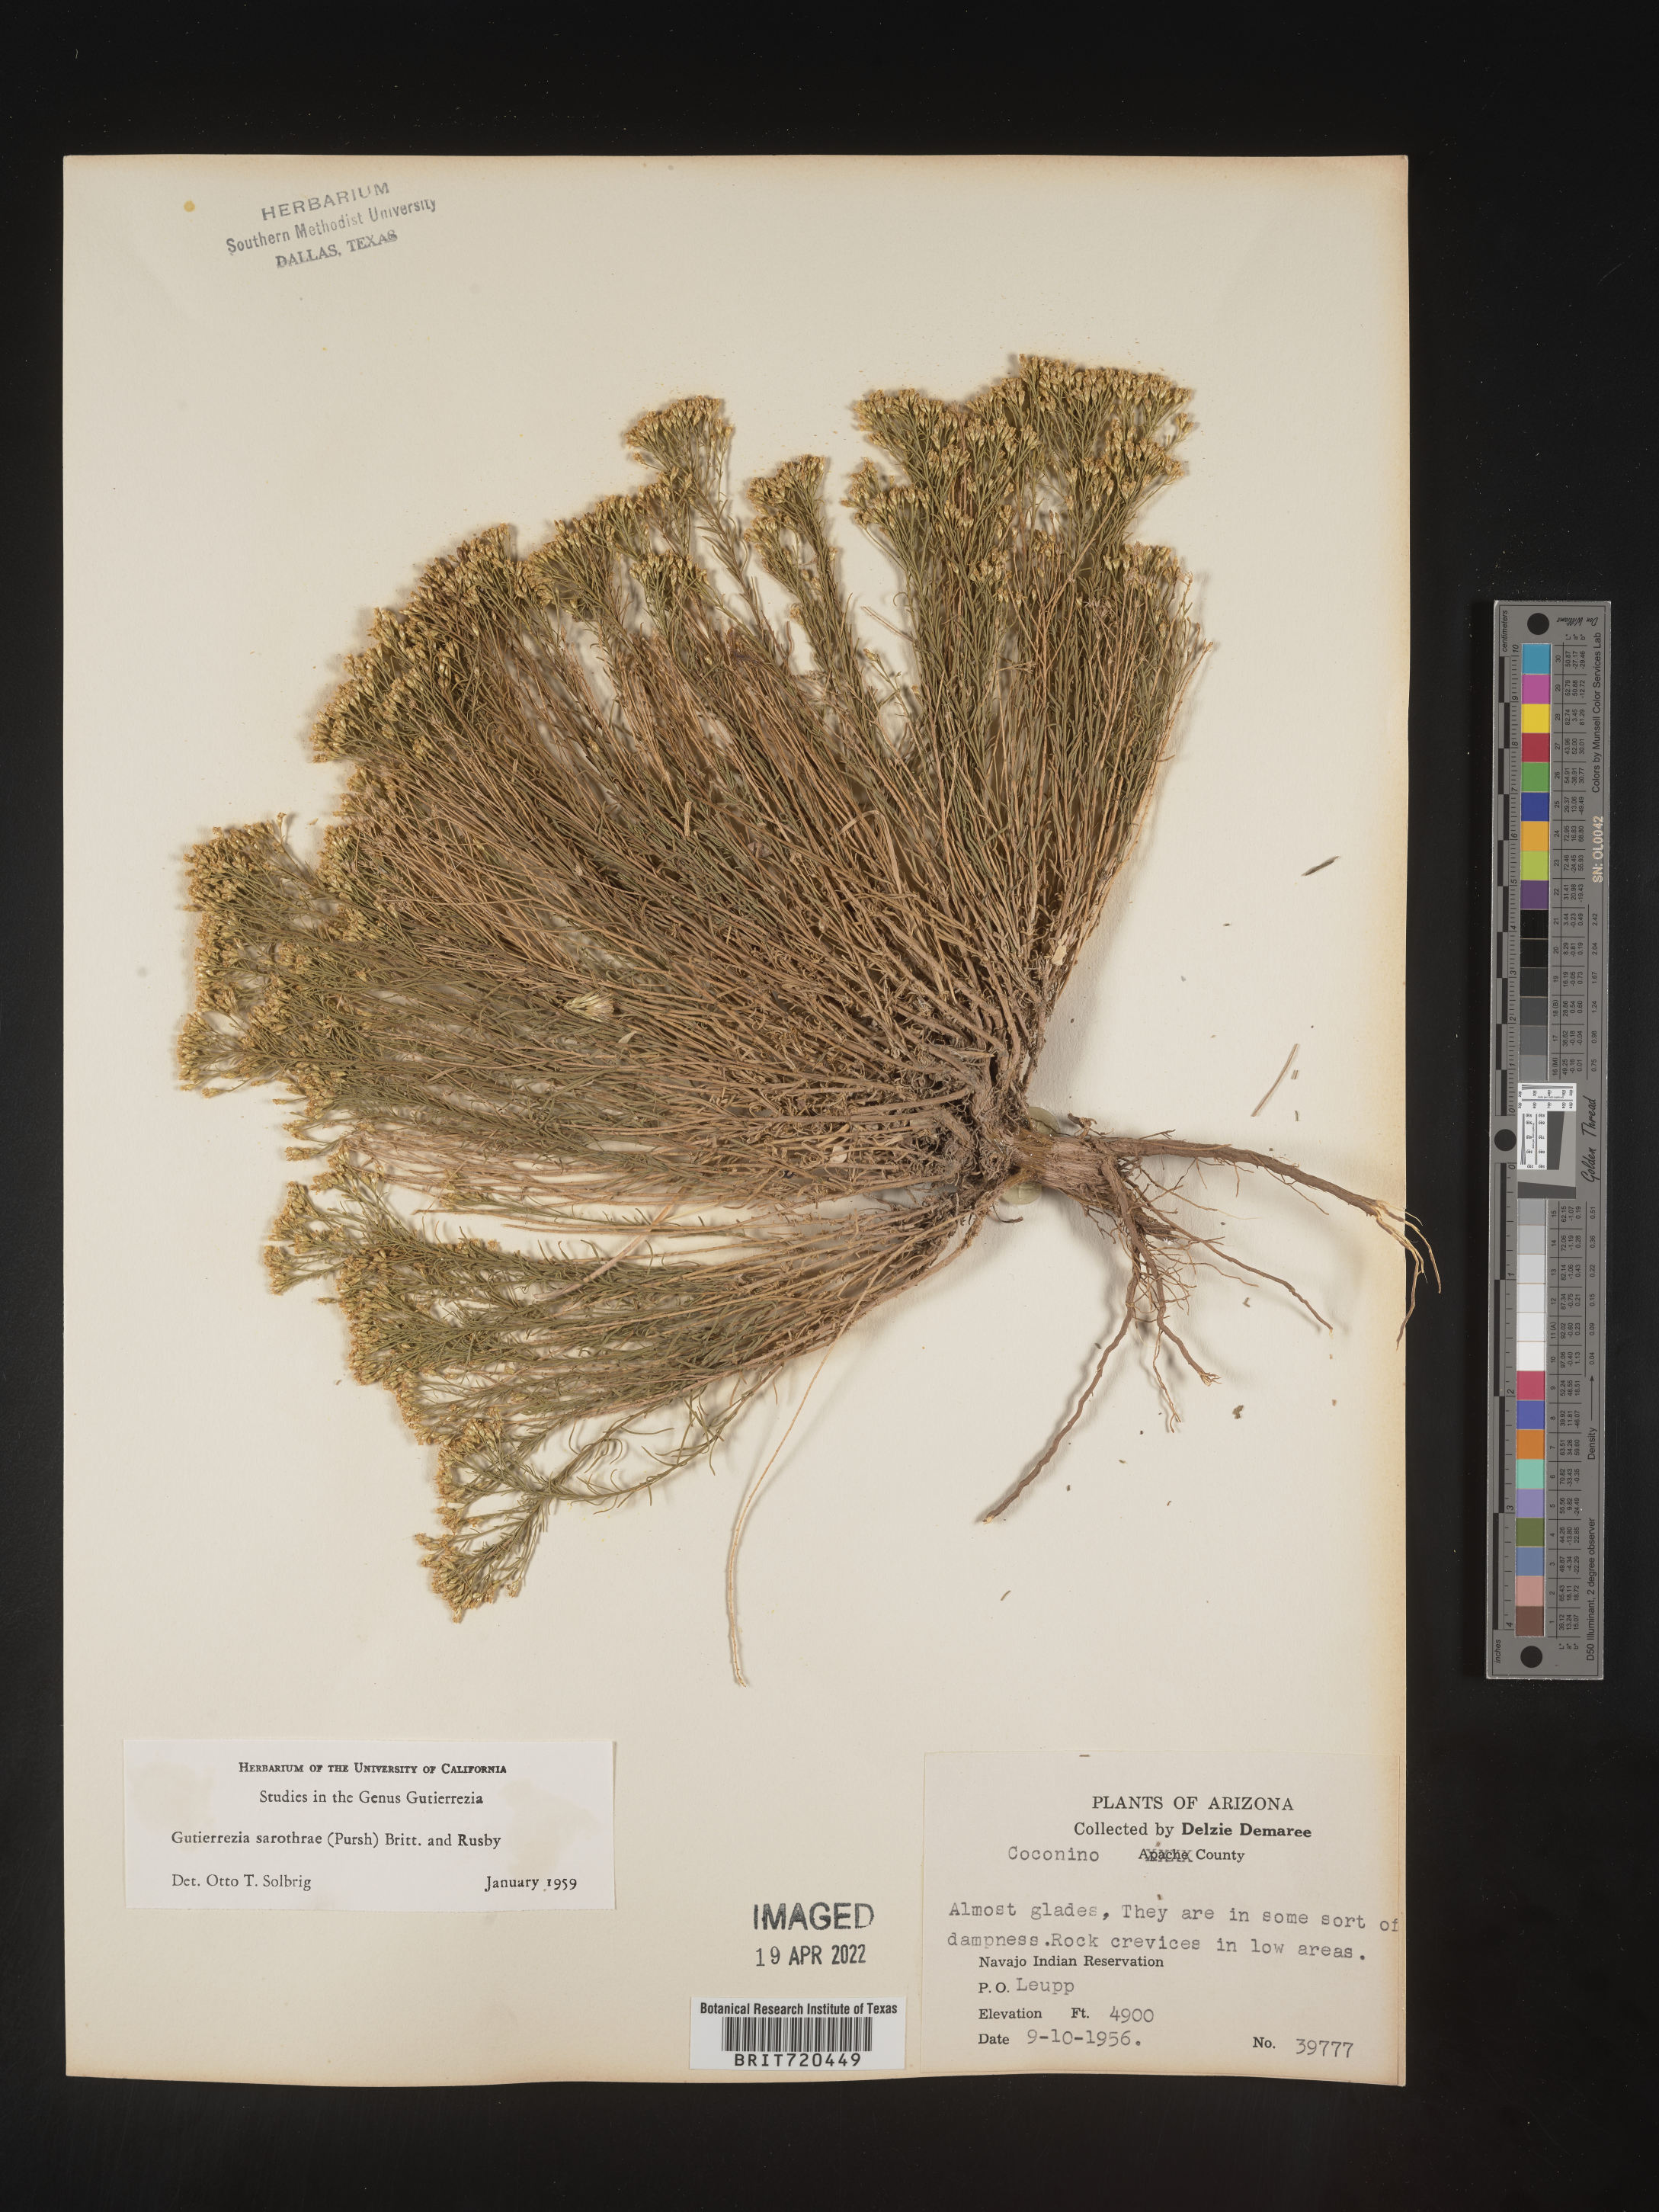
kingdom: Plantae
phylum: Tracheophyta
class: Magnoliopsida
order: Asterales
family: Asteraceae
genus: Gutierrezia
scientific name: Gutierrezia sarothrae
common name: Broom snakeweed
